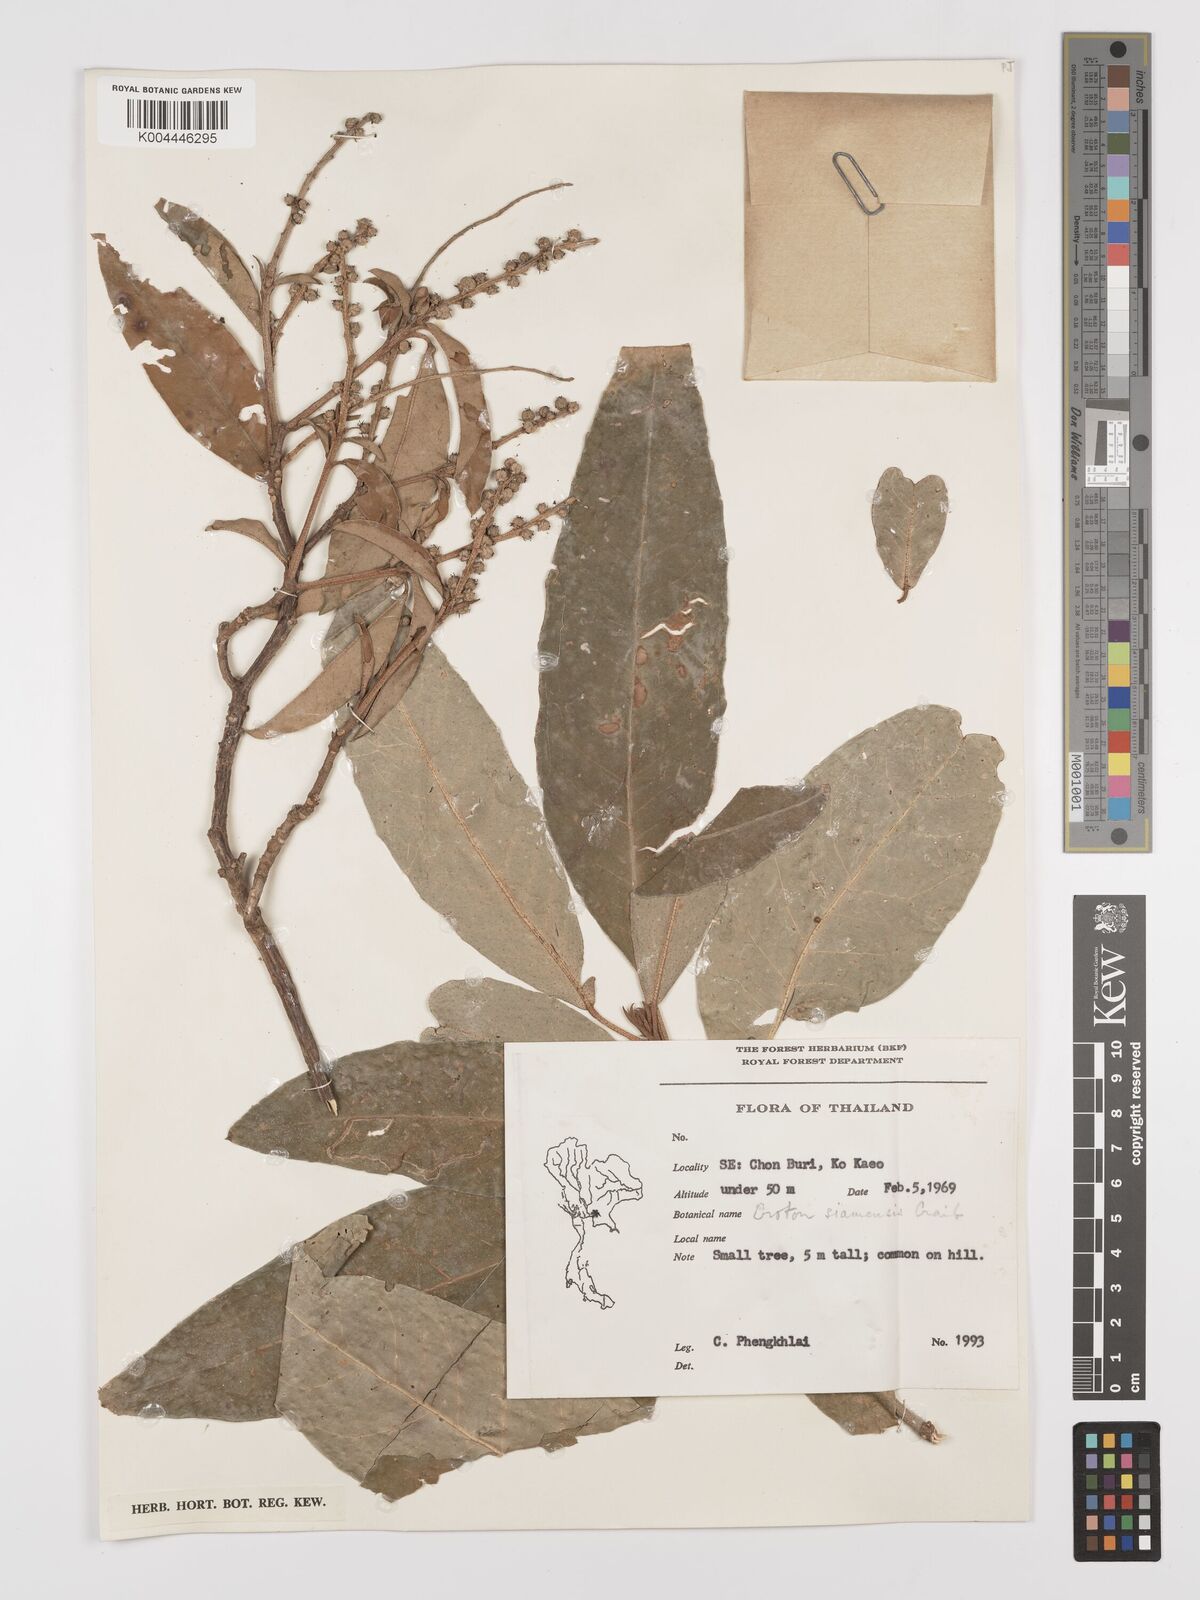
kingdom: Plantae
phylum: Tracheophyta
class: Magnoliopsida
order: Malpighiales
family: Euphorbiaceae
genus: Croton
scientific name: Croton robustus
